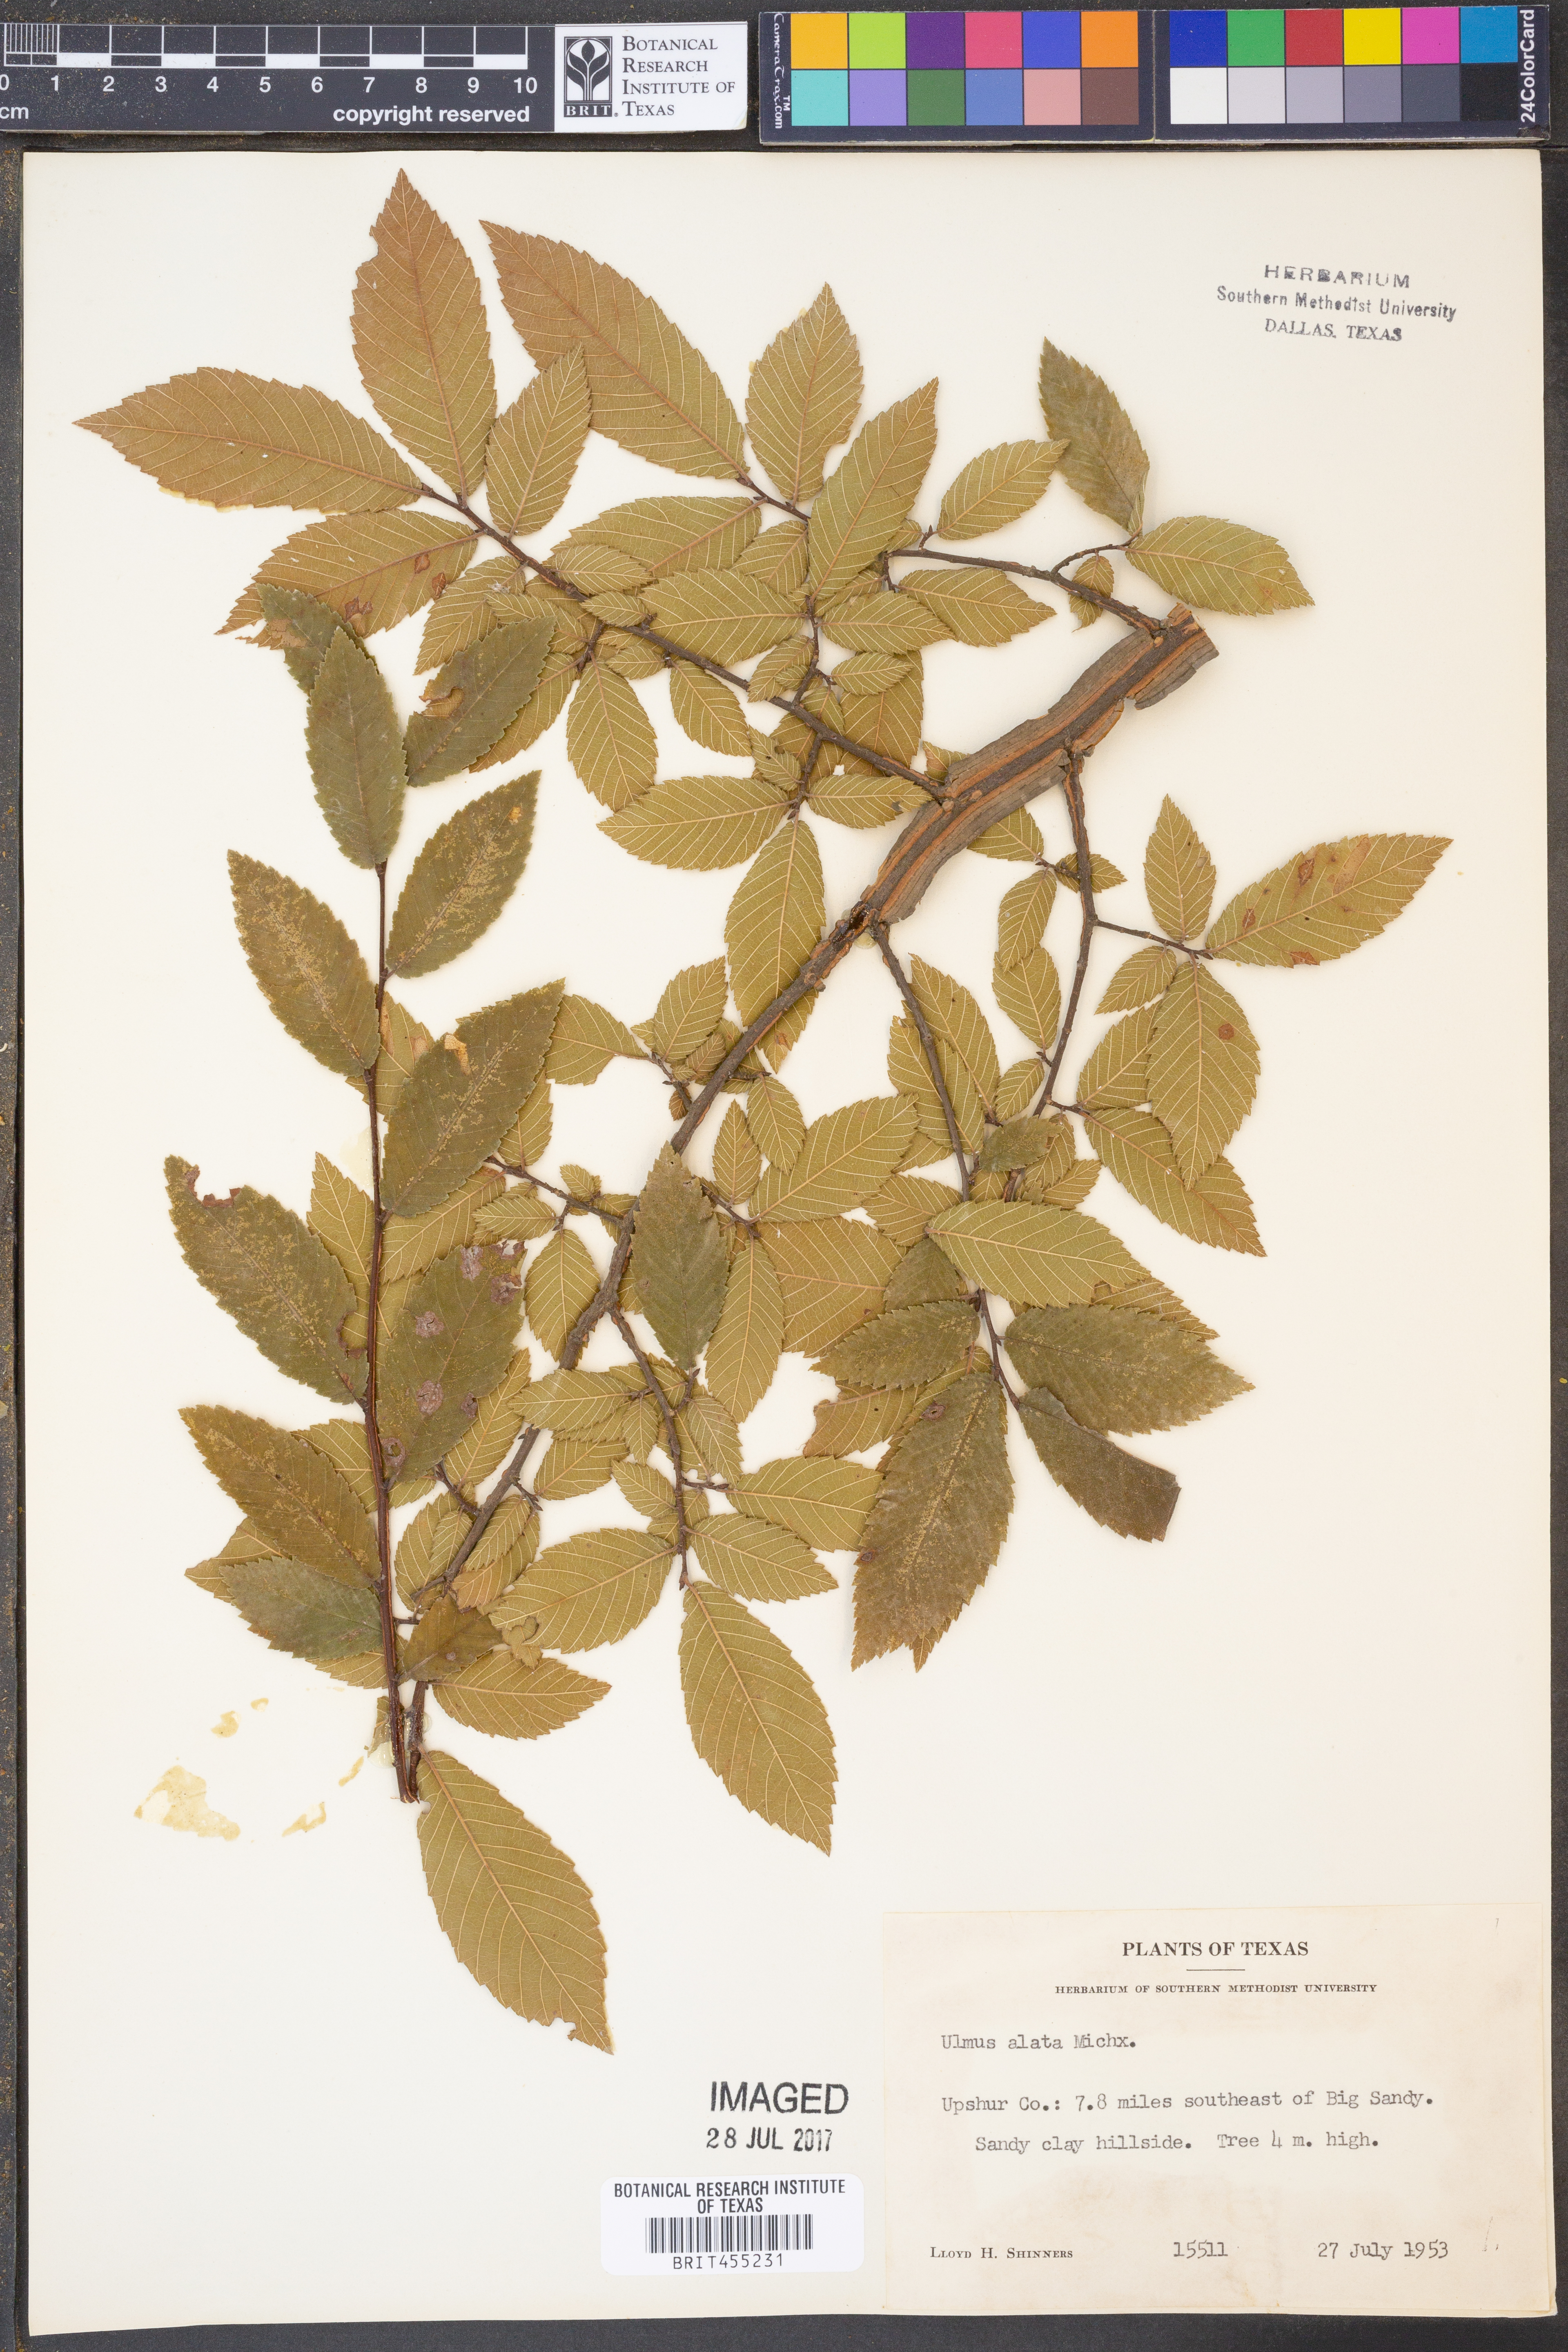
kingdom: Plantae
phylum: Tracheophyta
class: Magnoliopsida
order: Rosales
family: Ulmaceae
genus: Ulmus
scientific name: Ulmus alata
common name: Winged elm
